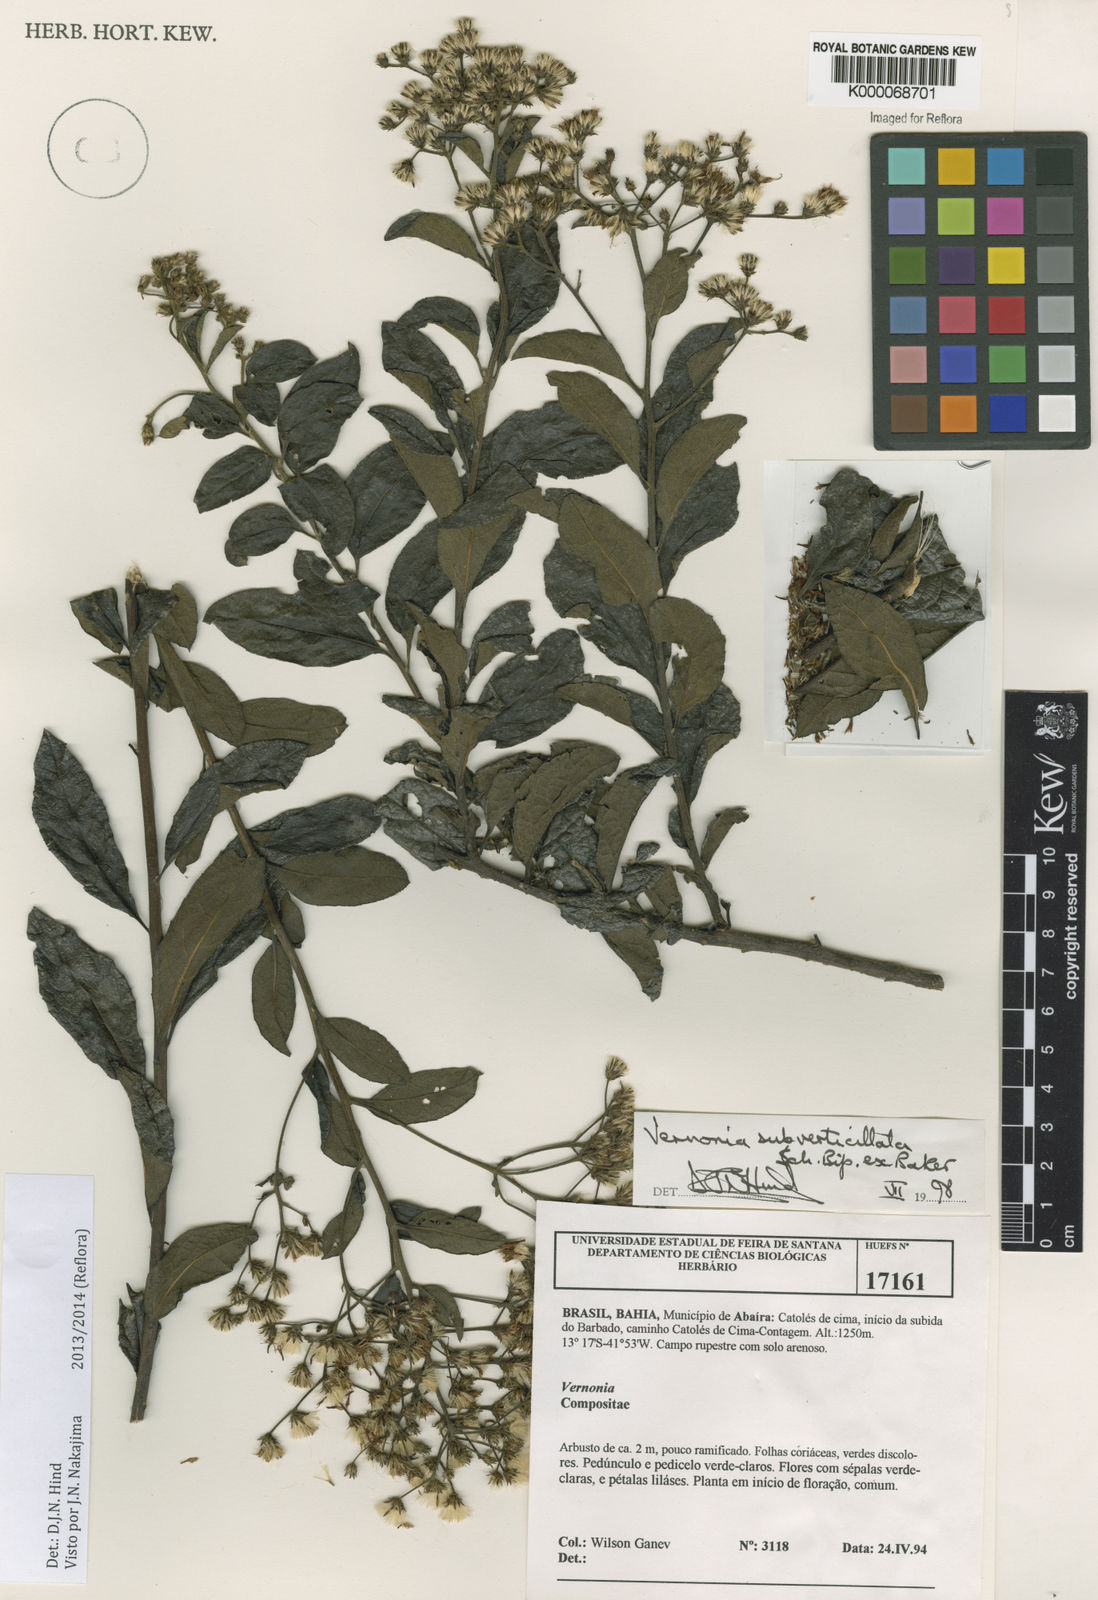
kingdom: Plantae
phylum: Tracheophyta
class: Magnoliopsida
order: Asterales
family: Asteraceae
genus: Vernonia
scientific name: Vernonia
